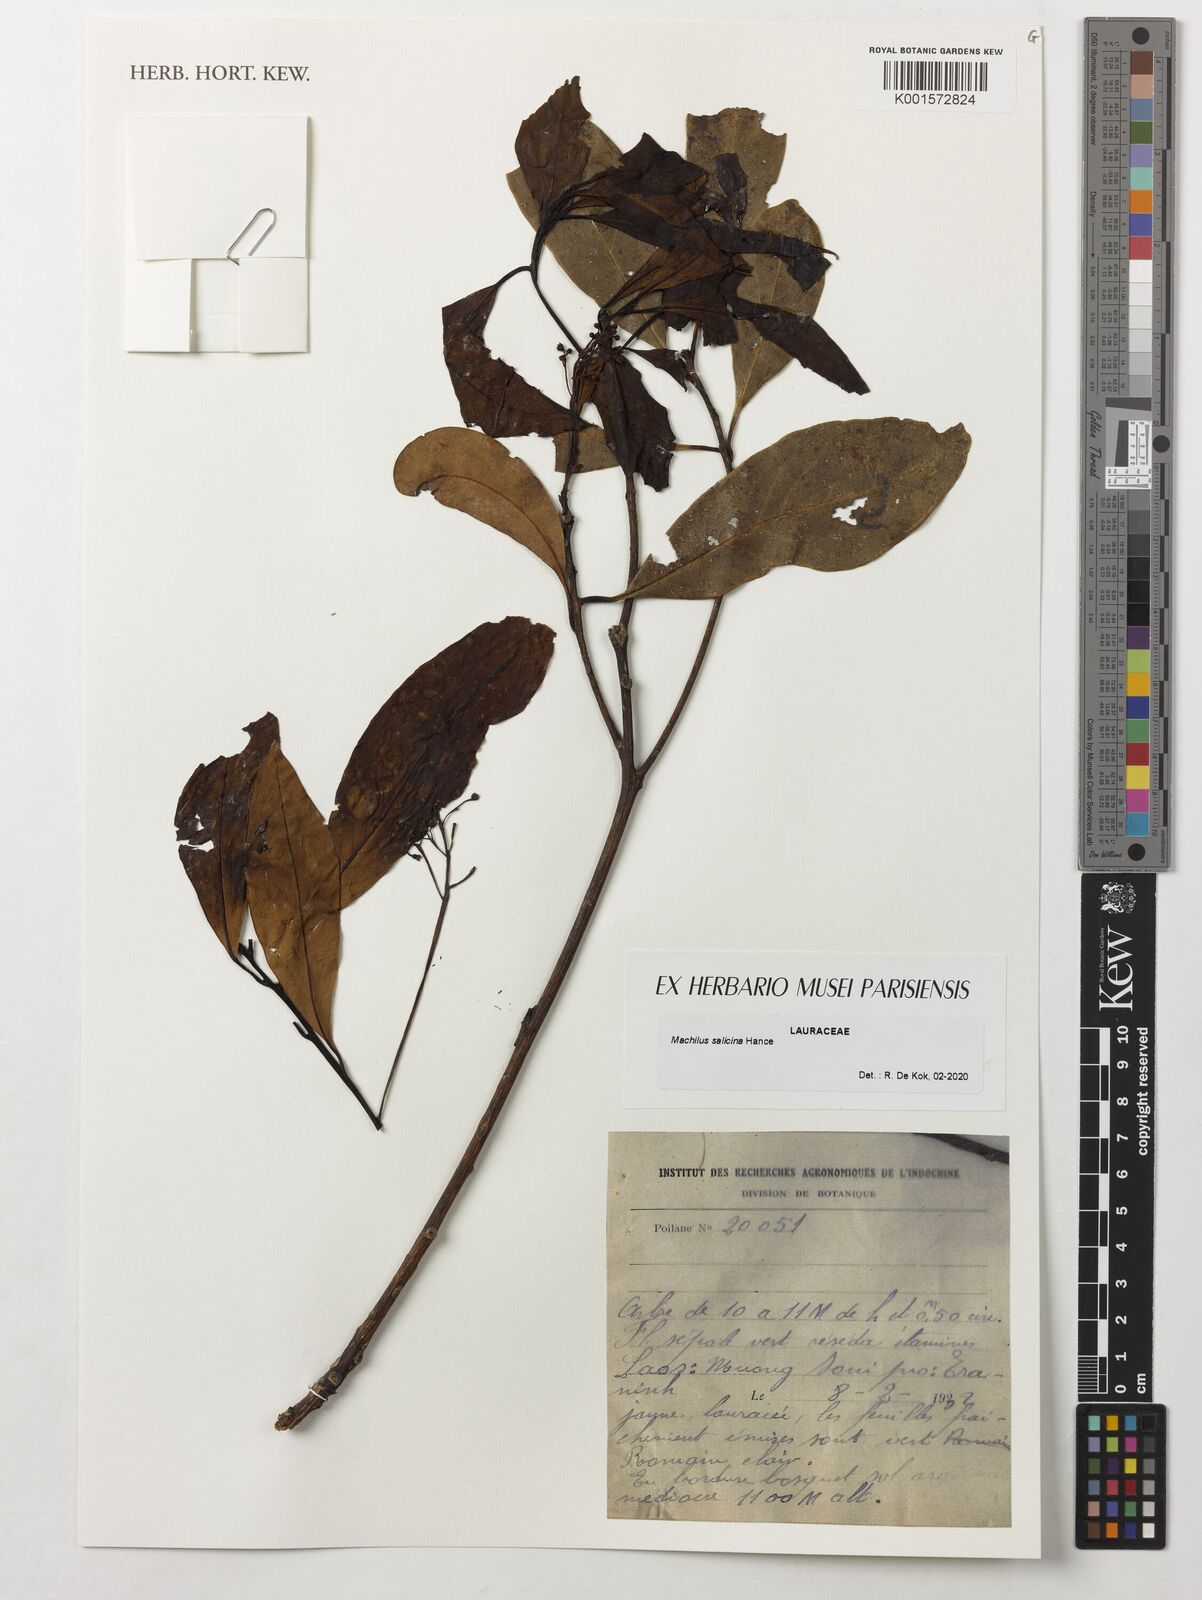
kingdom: Plantae
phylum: Tracheophyta
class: Magnoliopsida
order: Laurales
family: Lauraceae
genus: Machilus
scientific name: Machilus salicina
